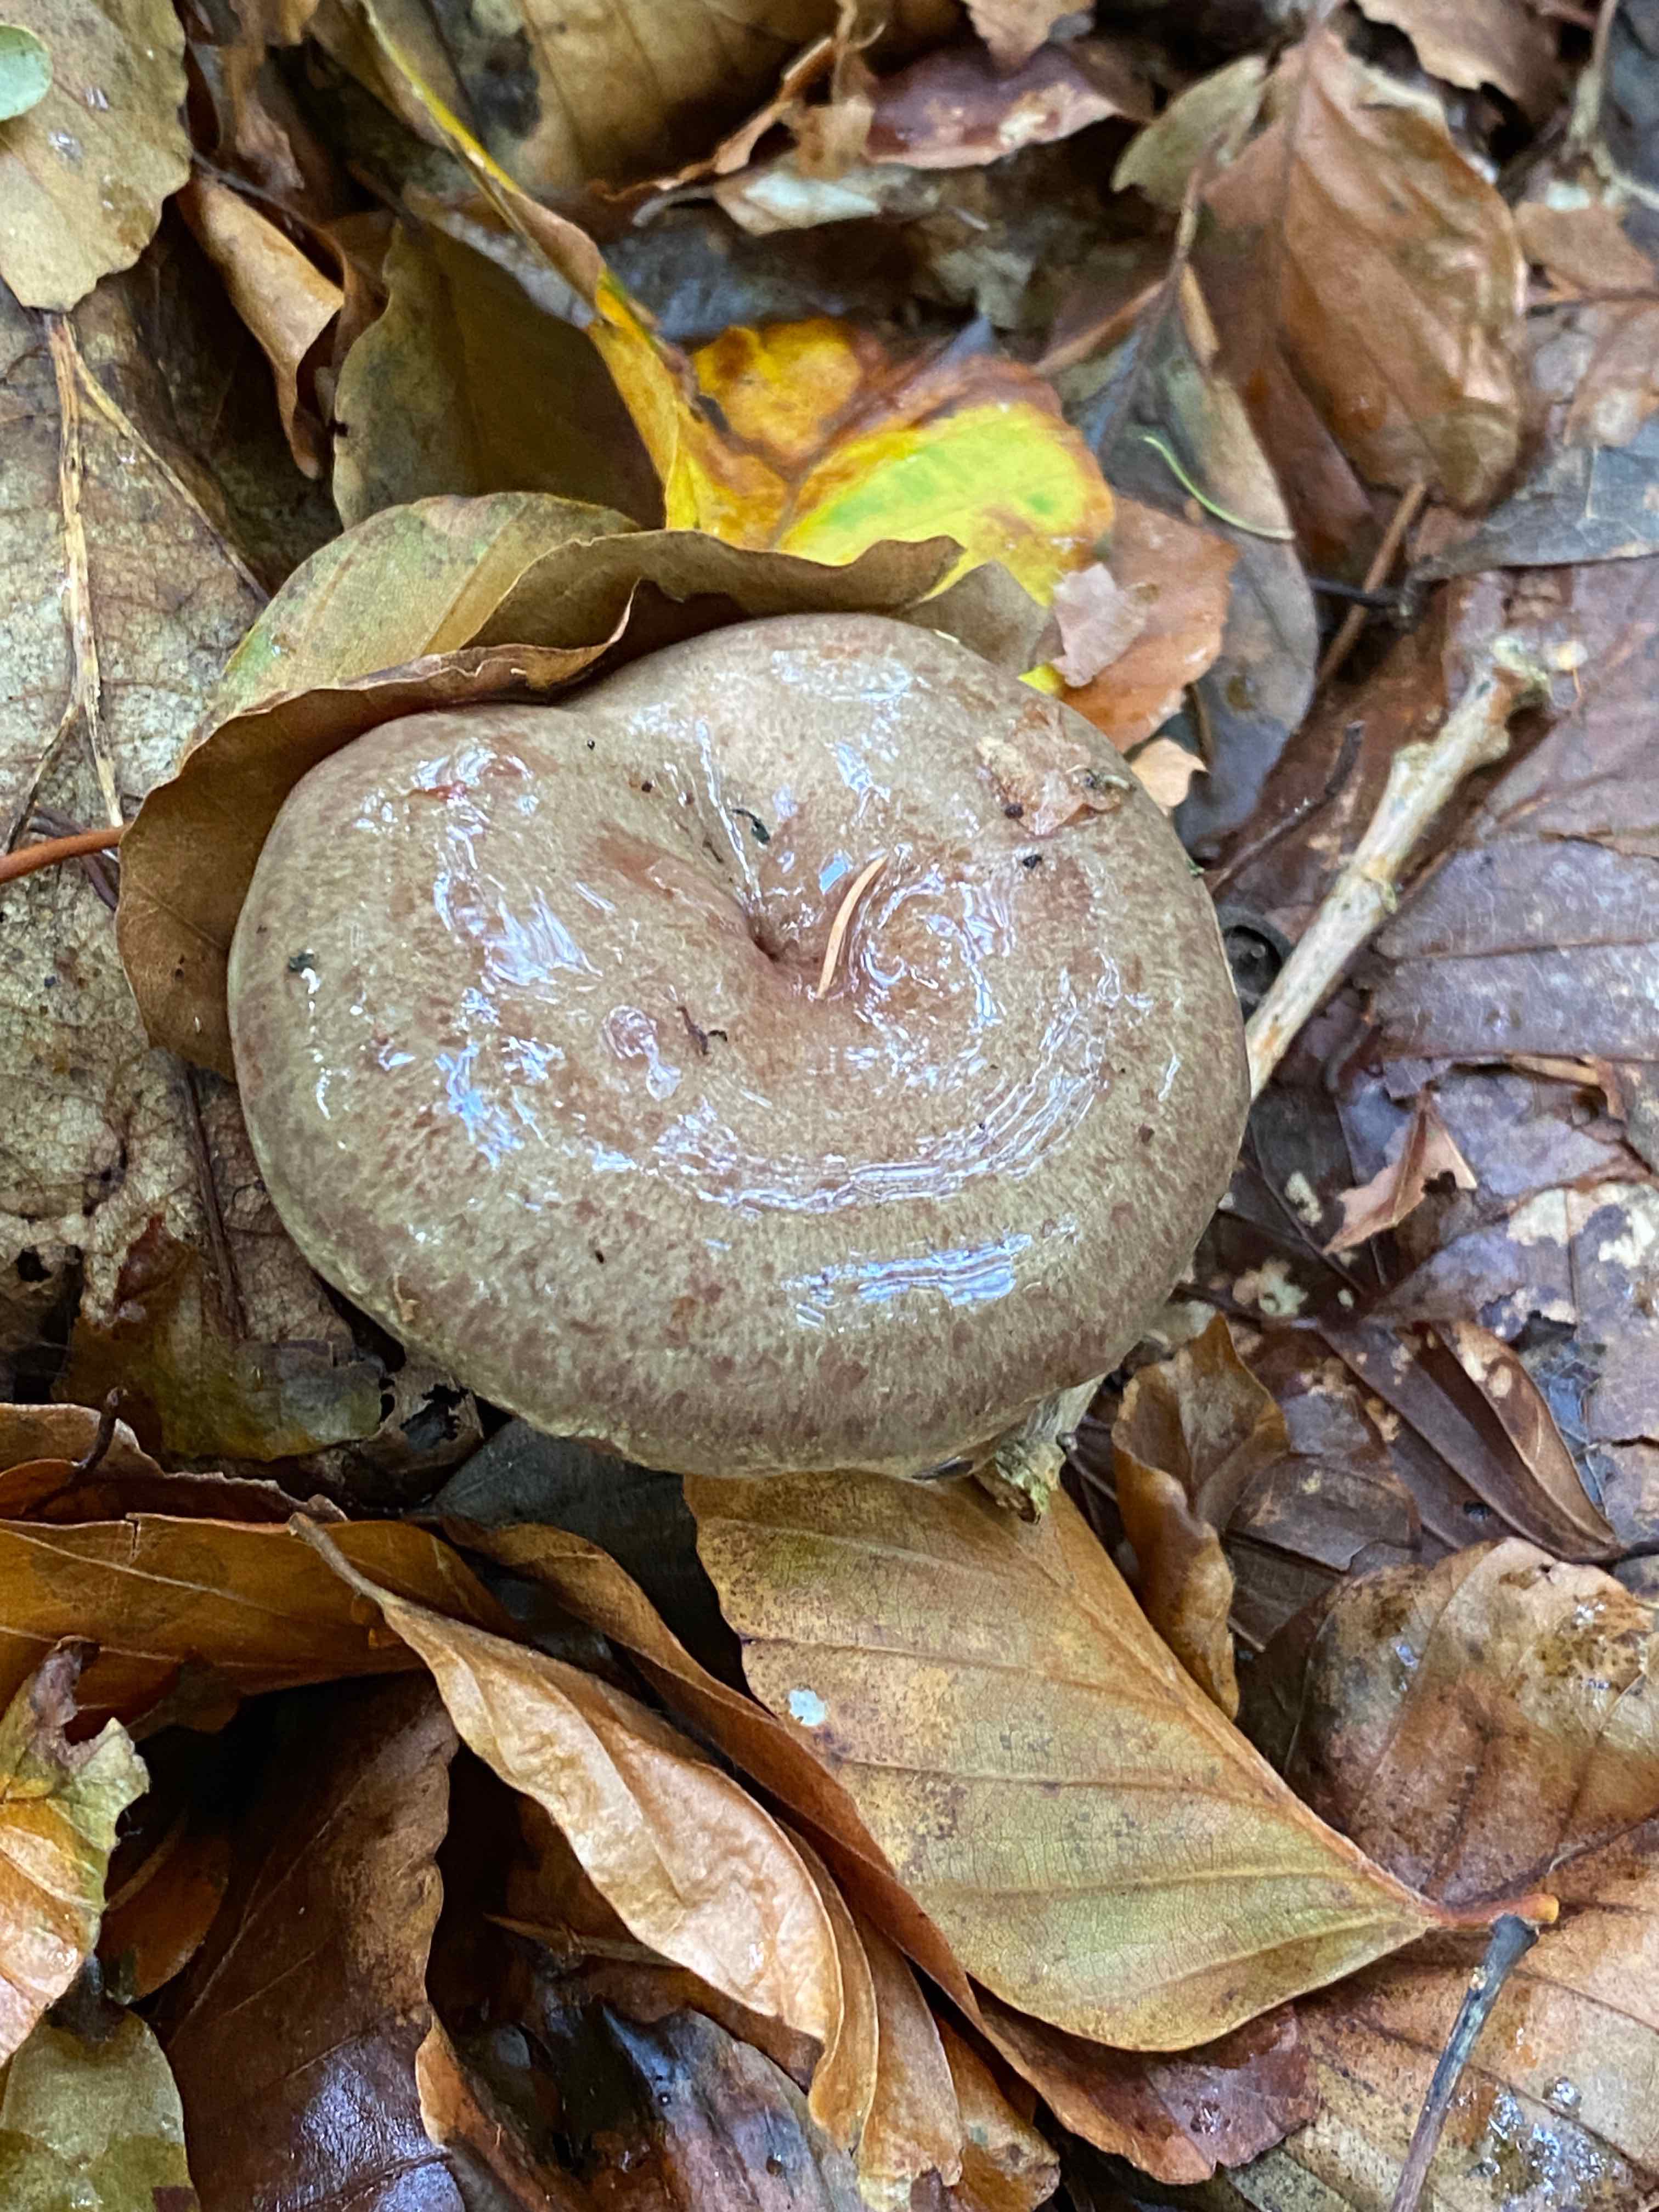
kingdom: Fungi
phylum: Basidiomycota
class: Agaricomycetes
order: Russulales
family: Russulaceae
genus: Lactarius
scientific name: Lactarius blennius
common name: dråbeplettet mælkehat
